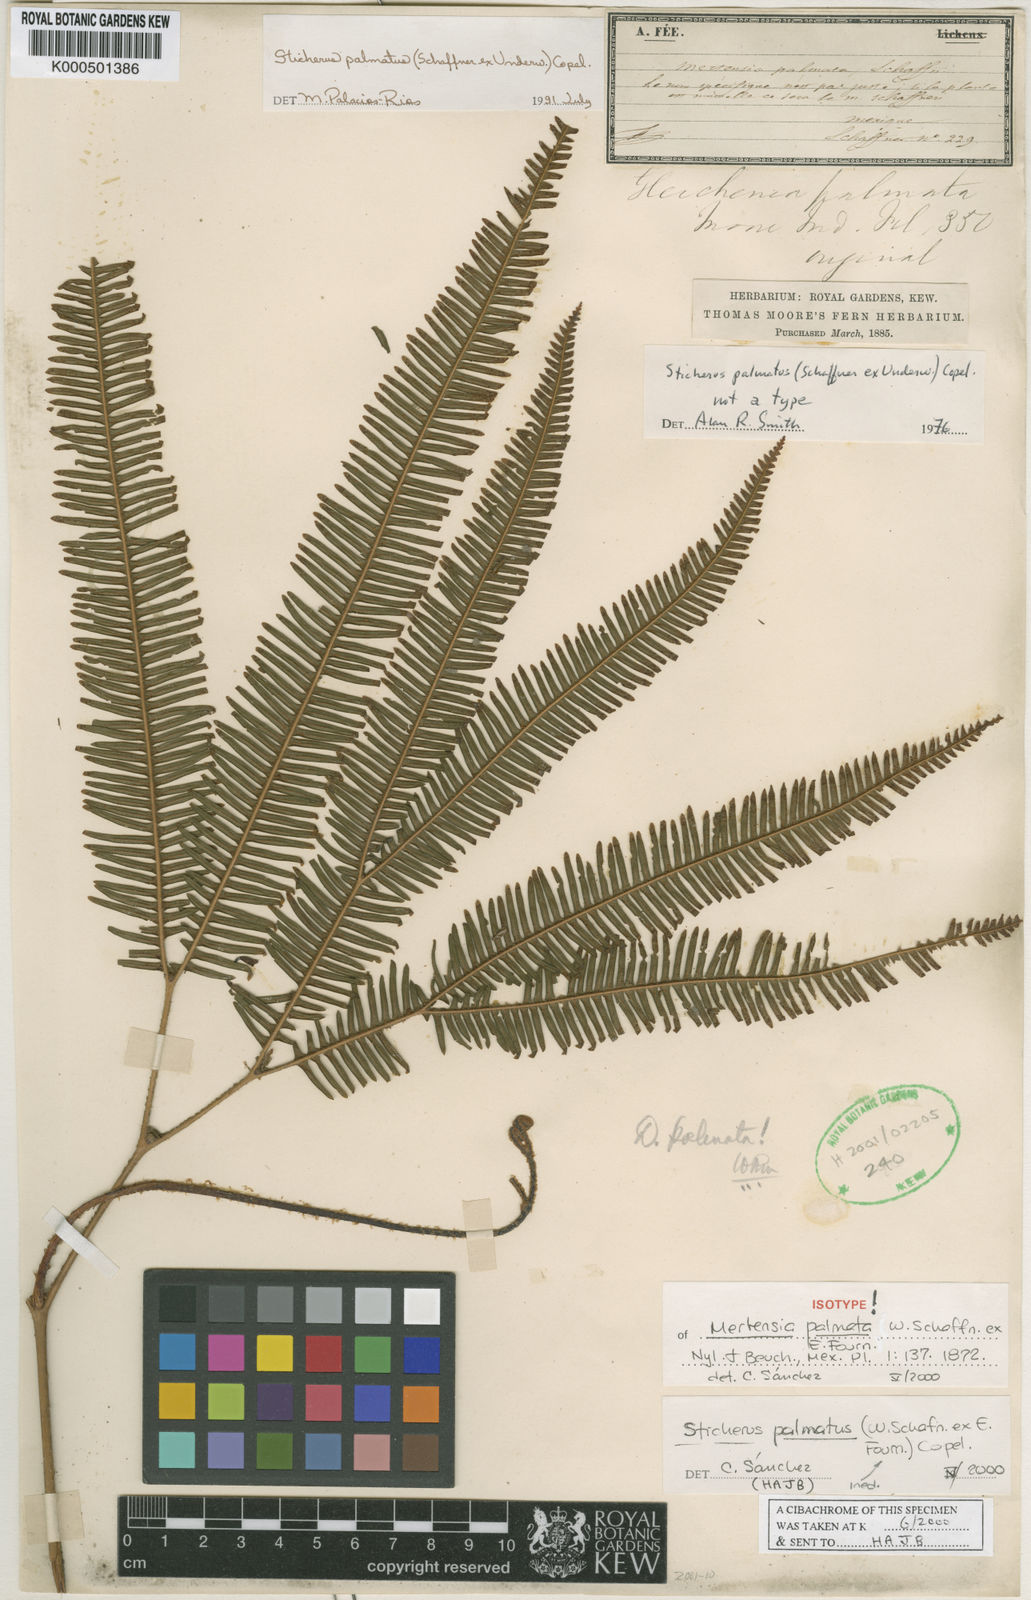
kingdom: Plantae
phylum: Tracheophyta
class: Polypodiopsida
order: Gleicheniales
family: Gleicheniaceae
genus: Sticherus
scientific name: Sticherus furcatus
